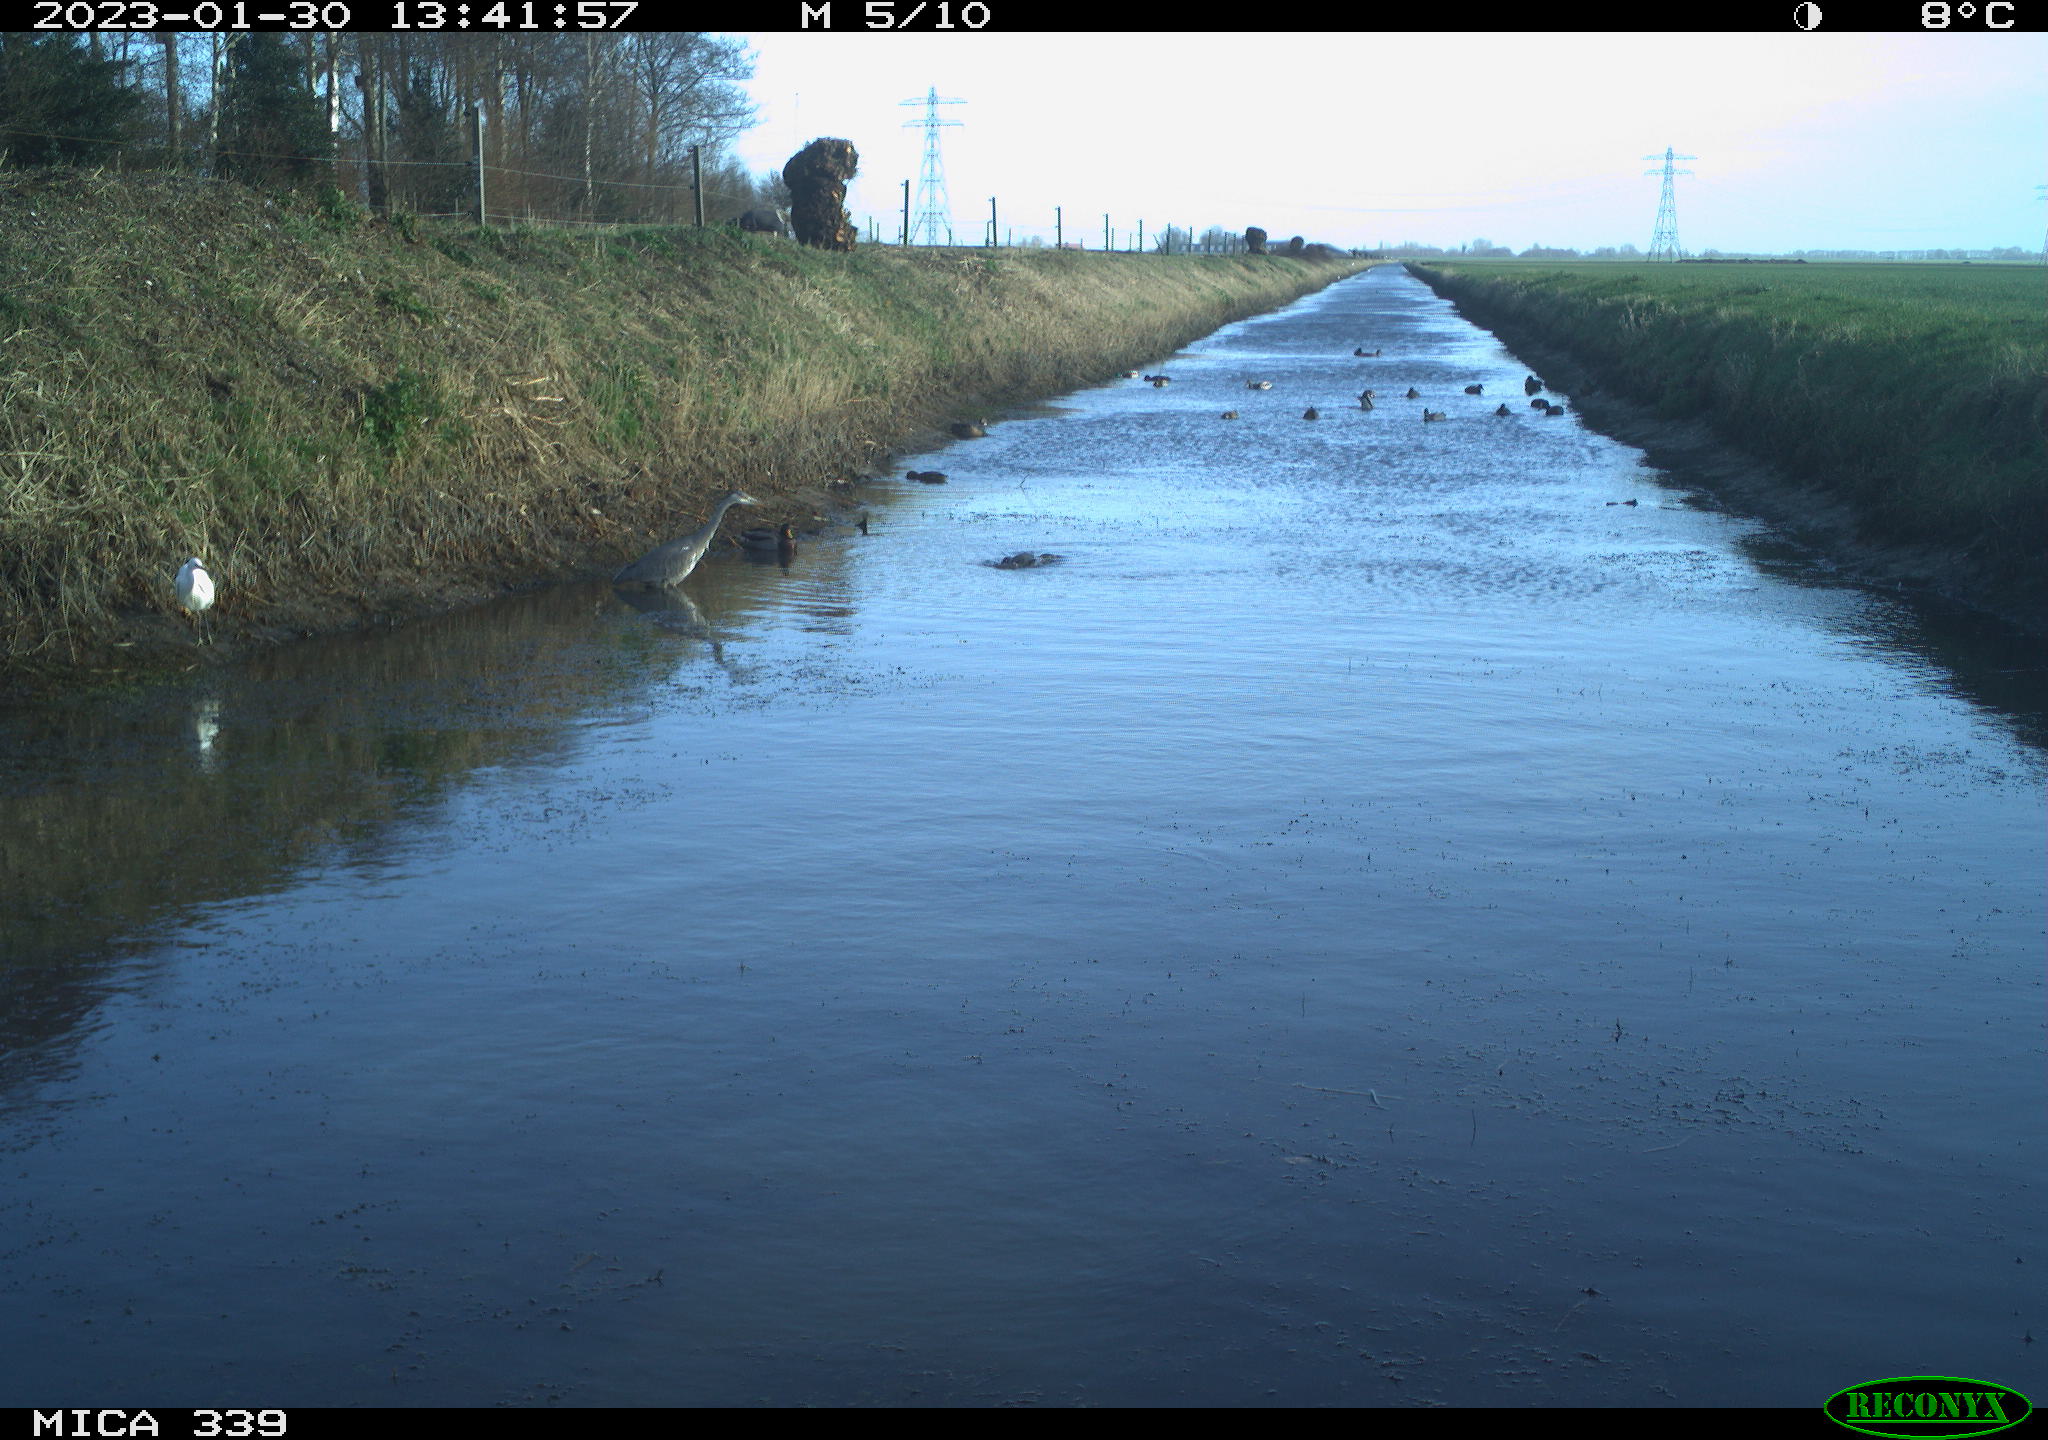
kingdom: Animalia
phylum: Chordata
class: Aves
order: Pelecaniformes
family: Ardeidae
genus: Ardea
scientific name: Ardea cinerea
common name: Grey heron
